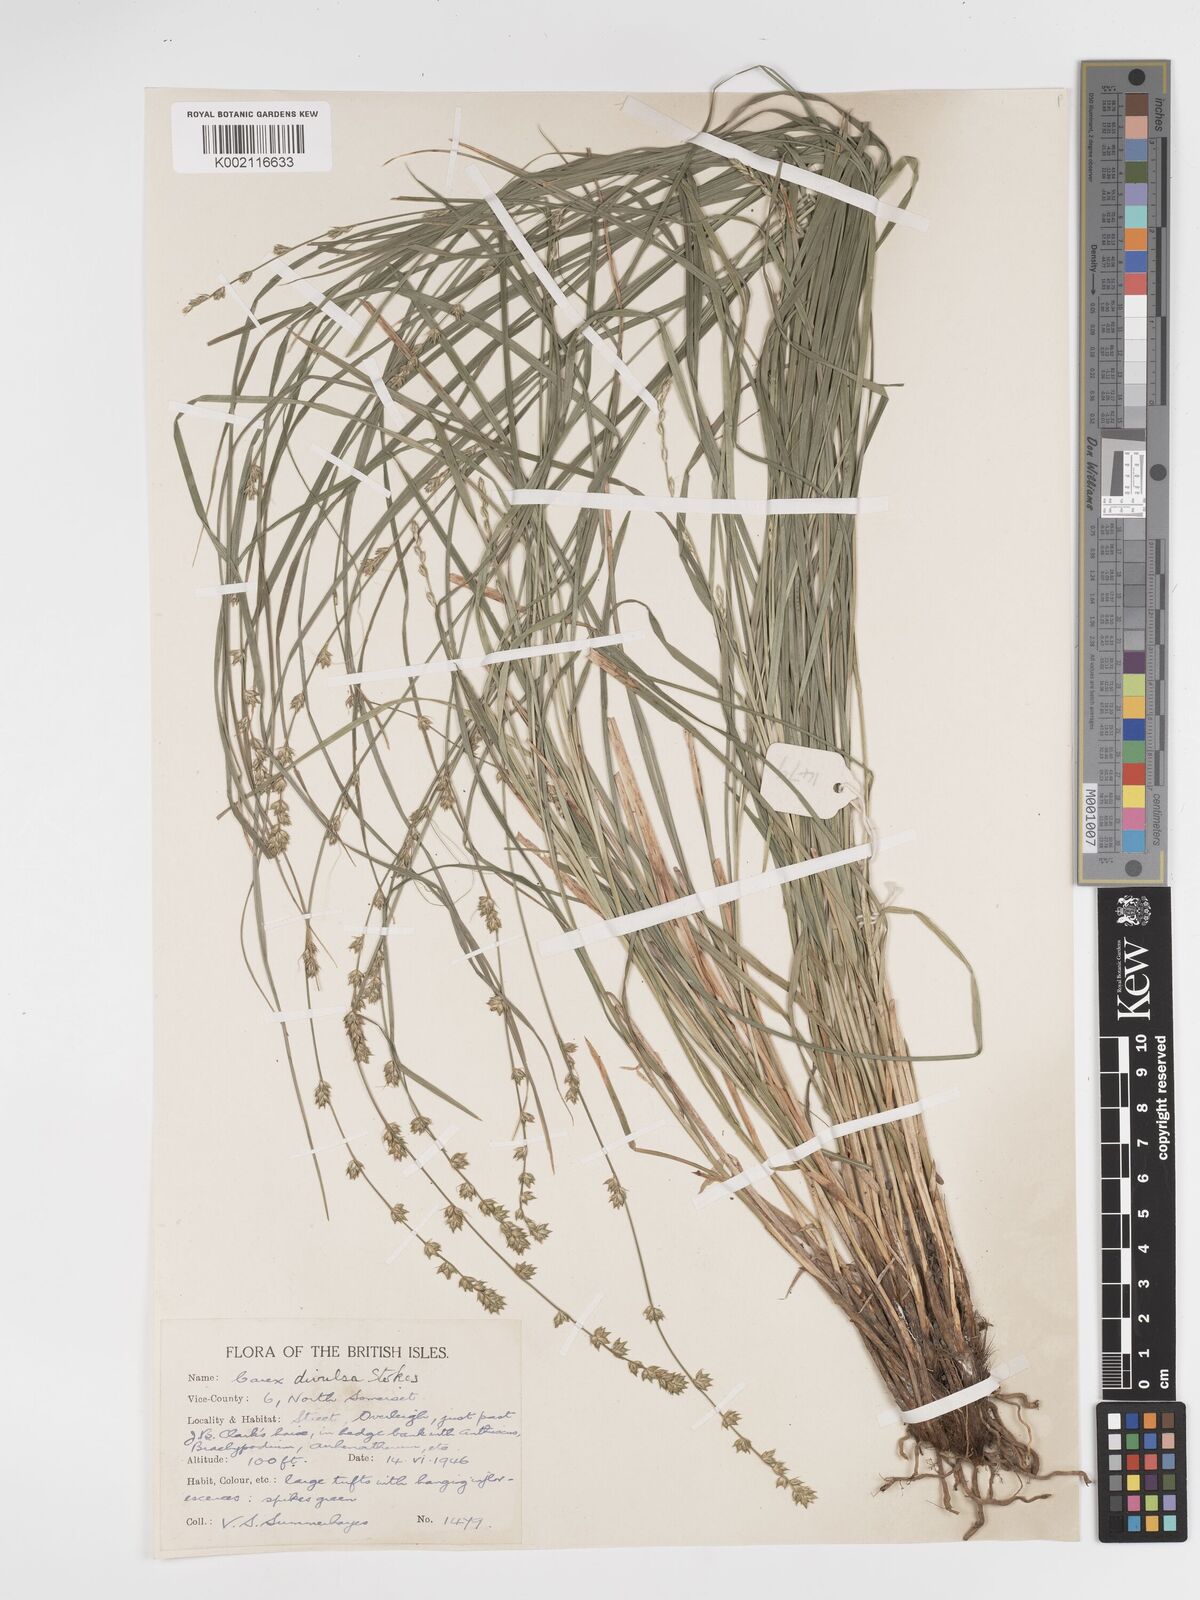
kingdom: Plantae
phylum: Tracheophyta
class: Liliopsida
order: Poales
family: Cyperaceae
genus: Carex
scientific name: Carex divulsa
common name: Grassland sedge
